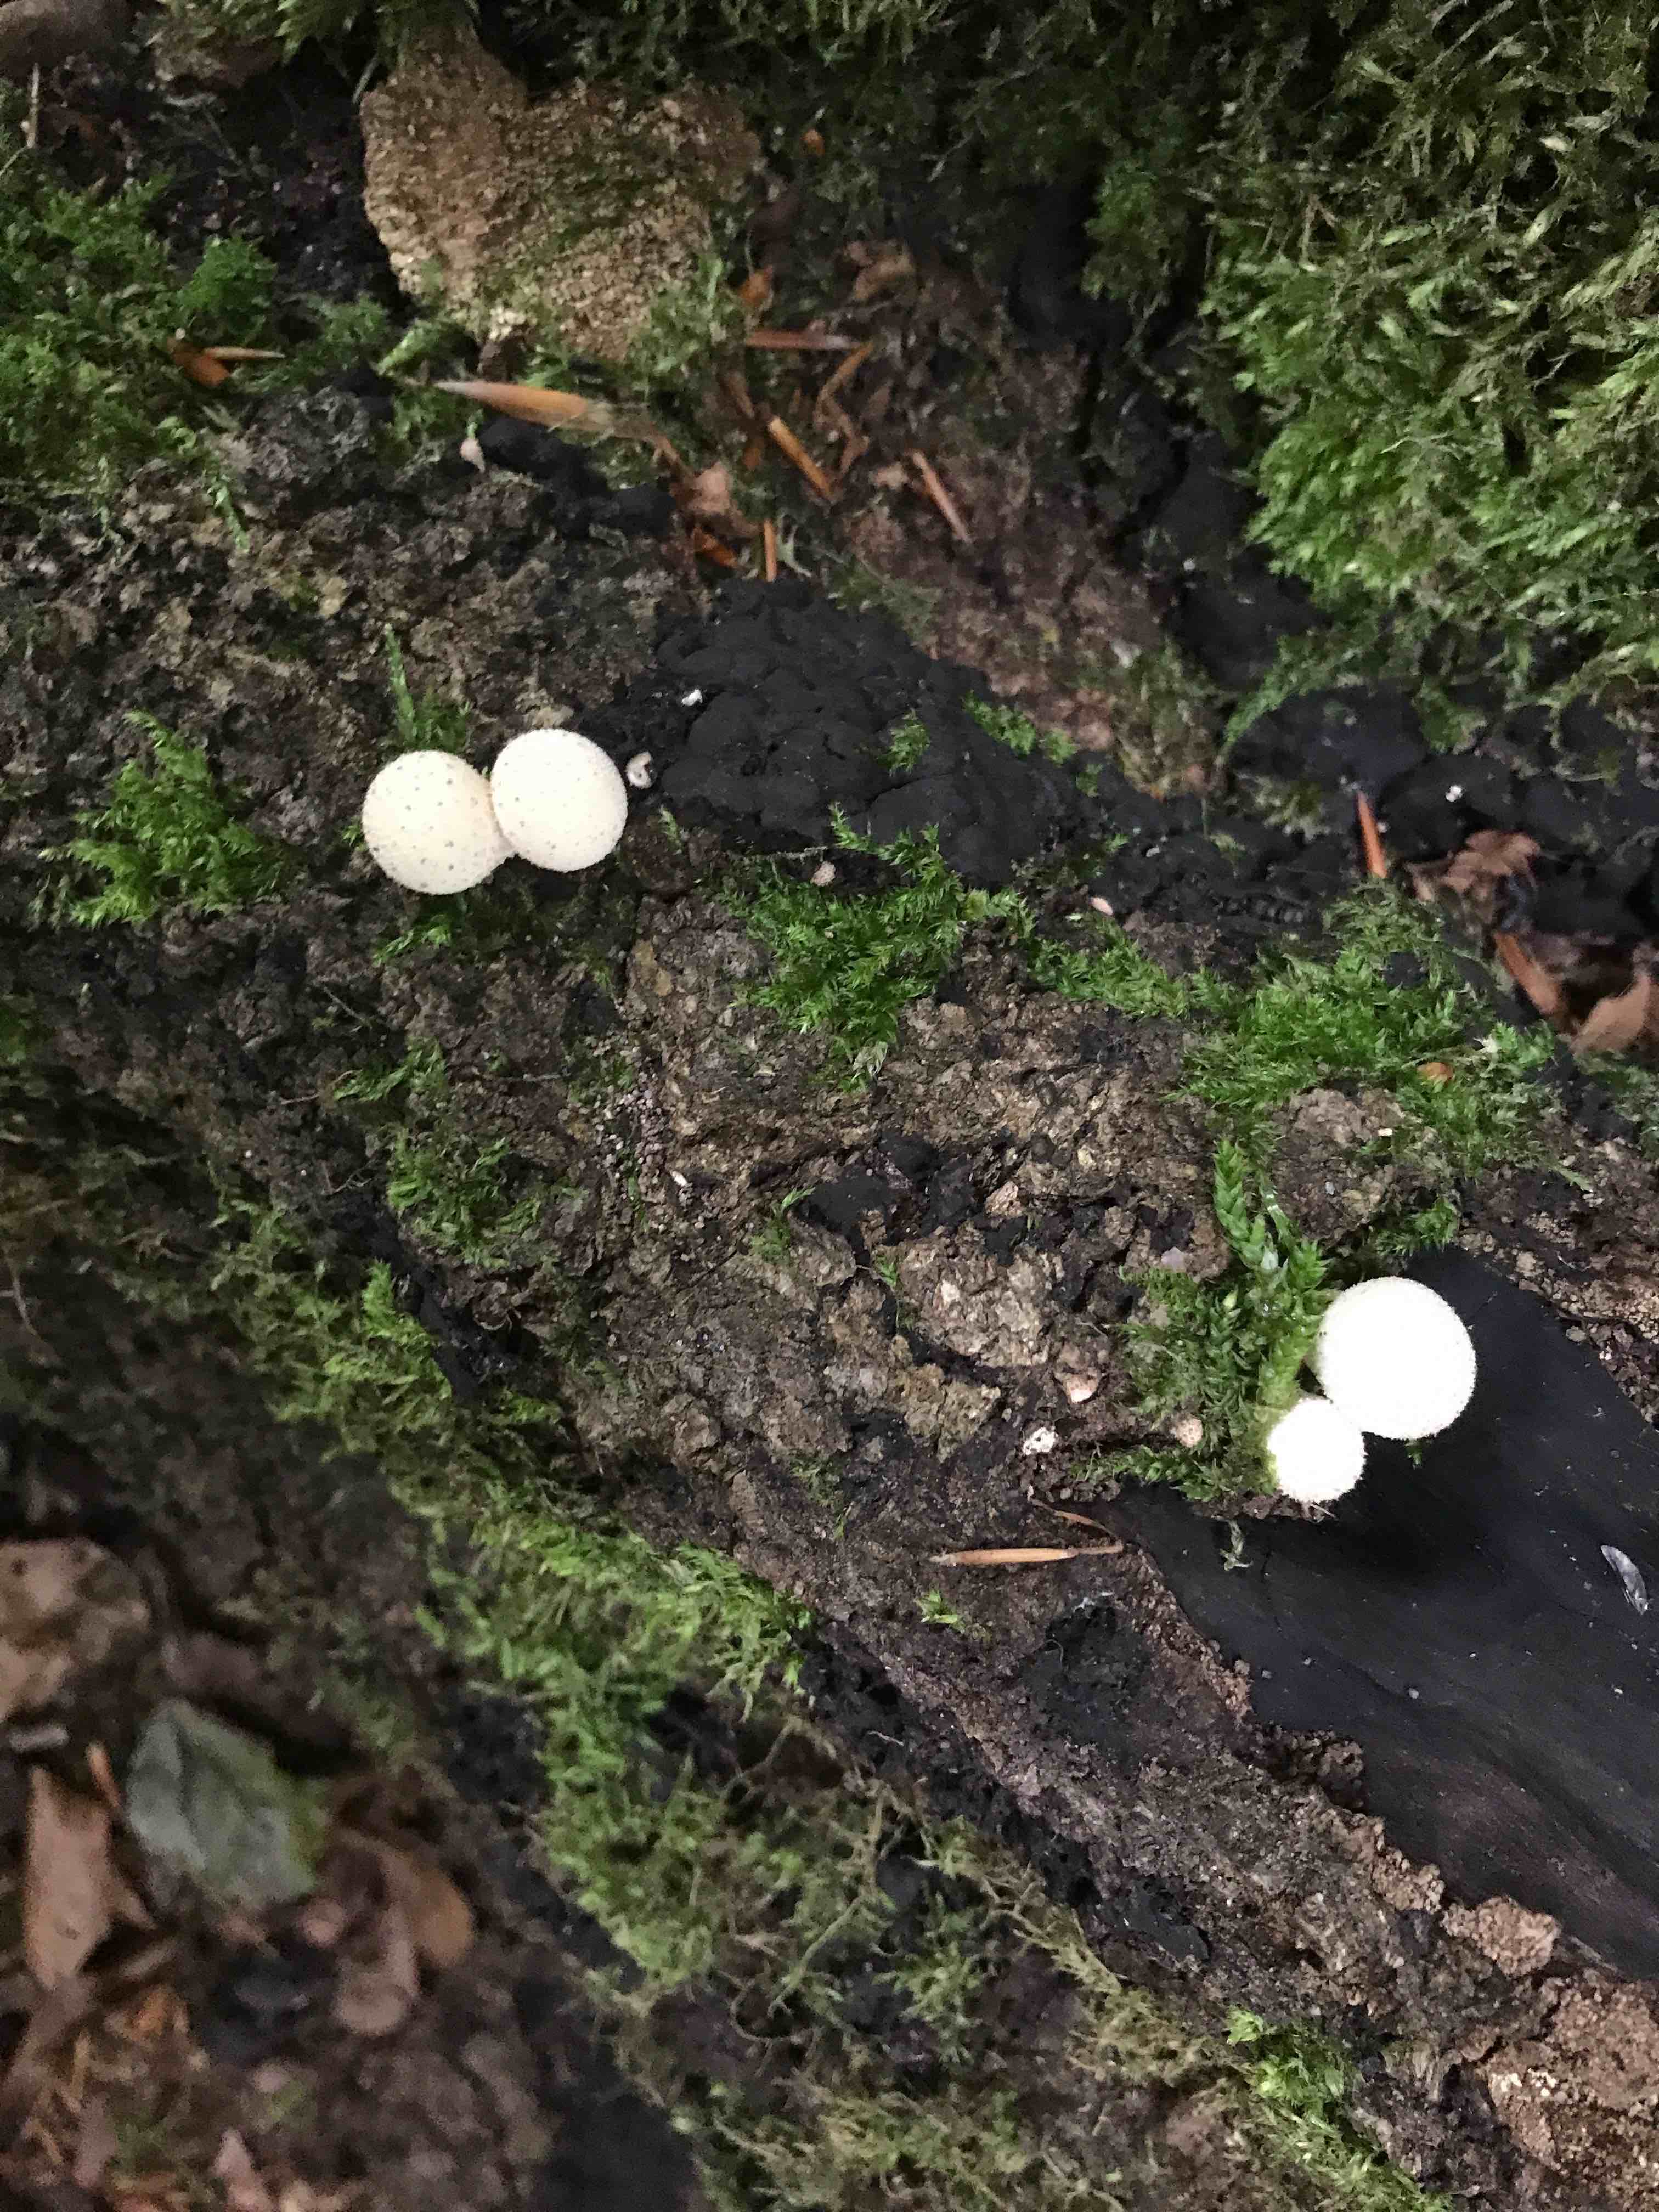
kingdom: Fungi
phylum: Basidiomycota
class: Agaricomycetes
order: Agaricales
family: Lycoperdaceae
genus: Apioperdon
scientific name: Apioperdon pyriforme
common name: pære-støvbold
